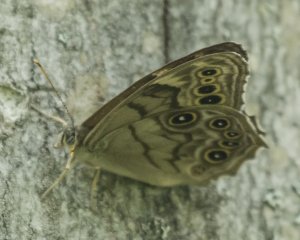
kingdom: Animalia
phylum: Arthropoda
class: Insecta
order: Lepidoptera
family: Nymphalidae
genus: Lethe
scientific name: Lethe anthedon
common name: Northern Pearly-Eye
